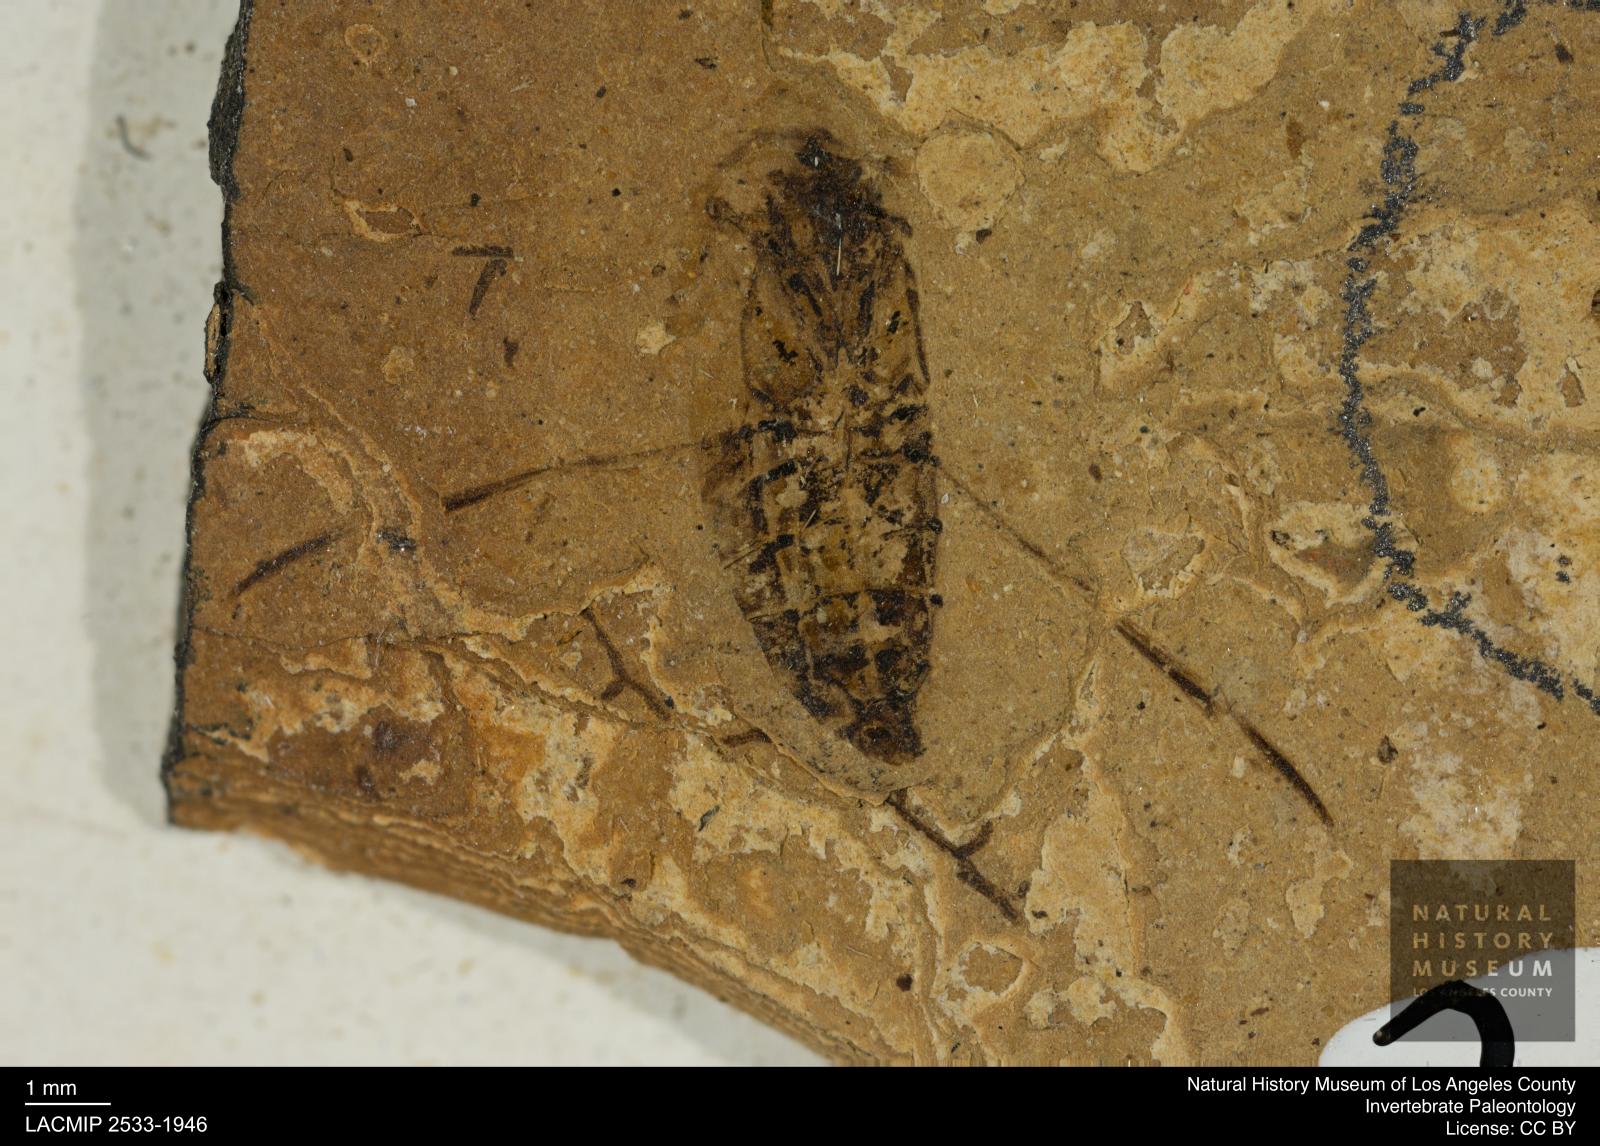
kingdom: Animalia
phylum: Arthropoda
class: Insecta
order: Hemiptera
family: Notonectidae
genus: Anisops
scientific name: Anisops Notonecta deichmuelleri
